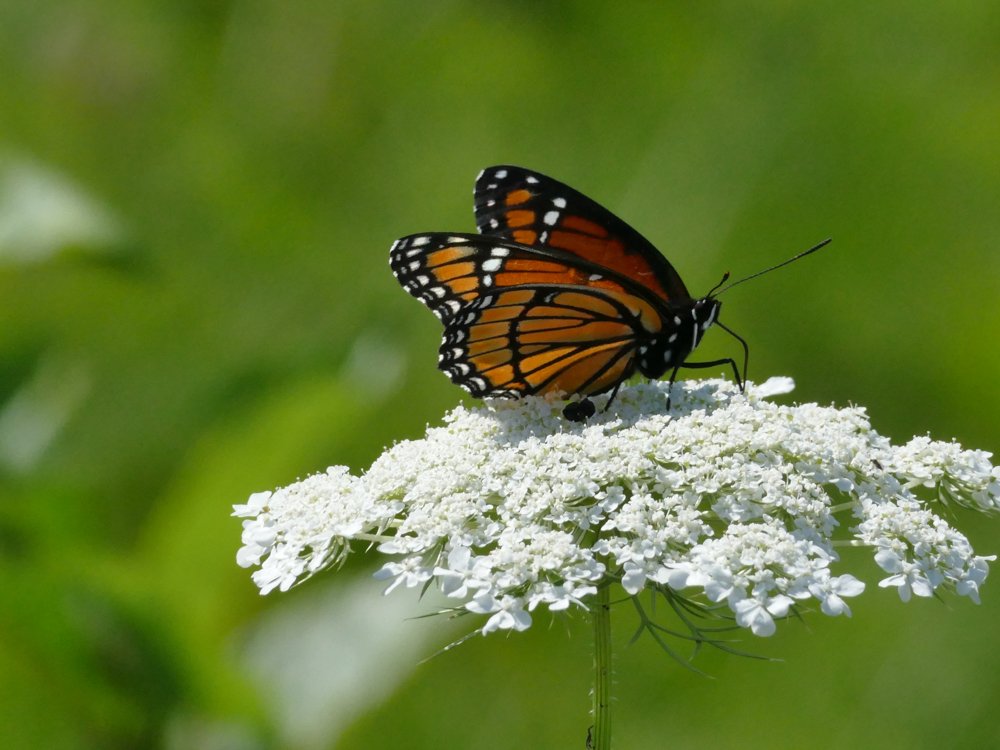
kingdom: Animalia
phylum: Arthropoda
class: Insecta
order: Lepidoptera
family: Nymphalidae
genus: Limenitis
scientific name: Limenitis archippus
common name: Viceroy
